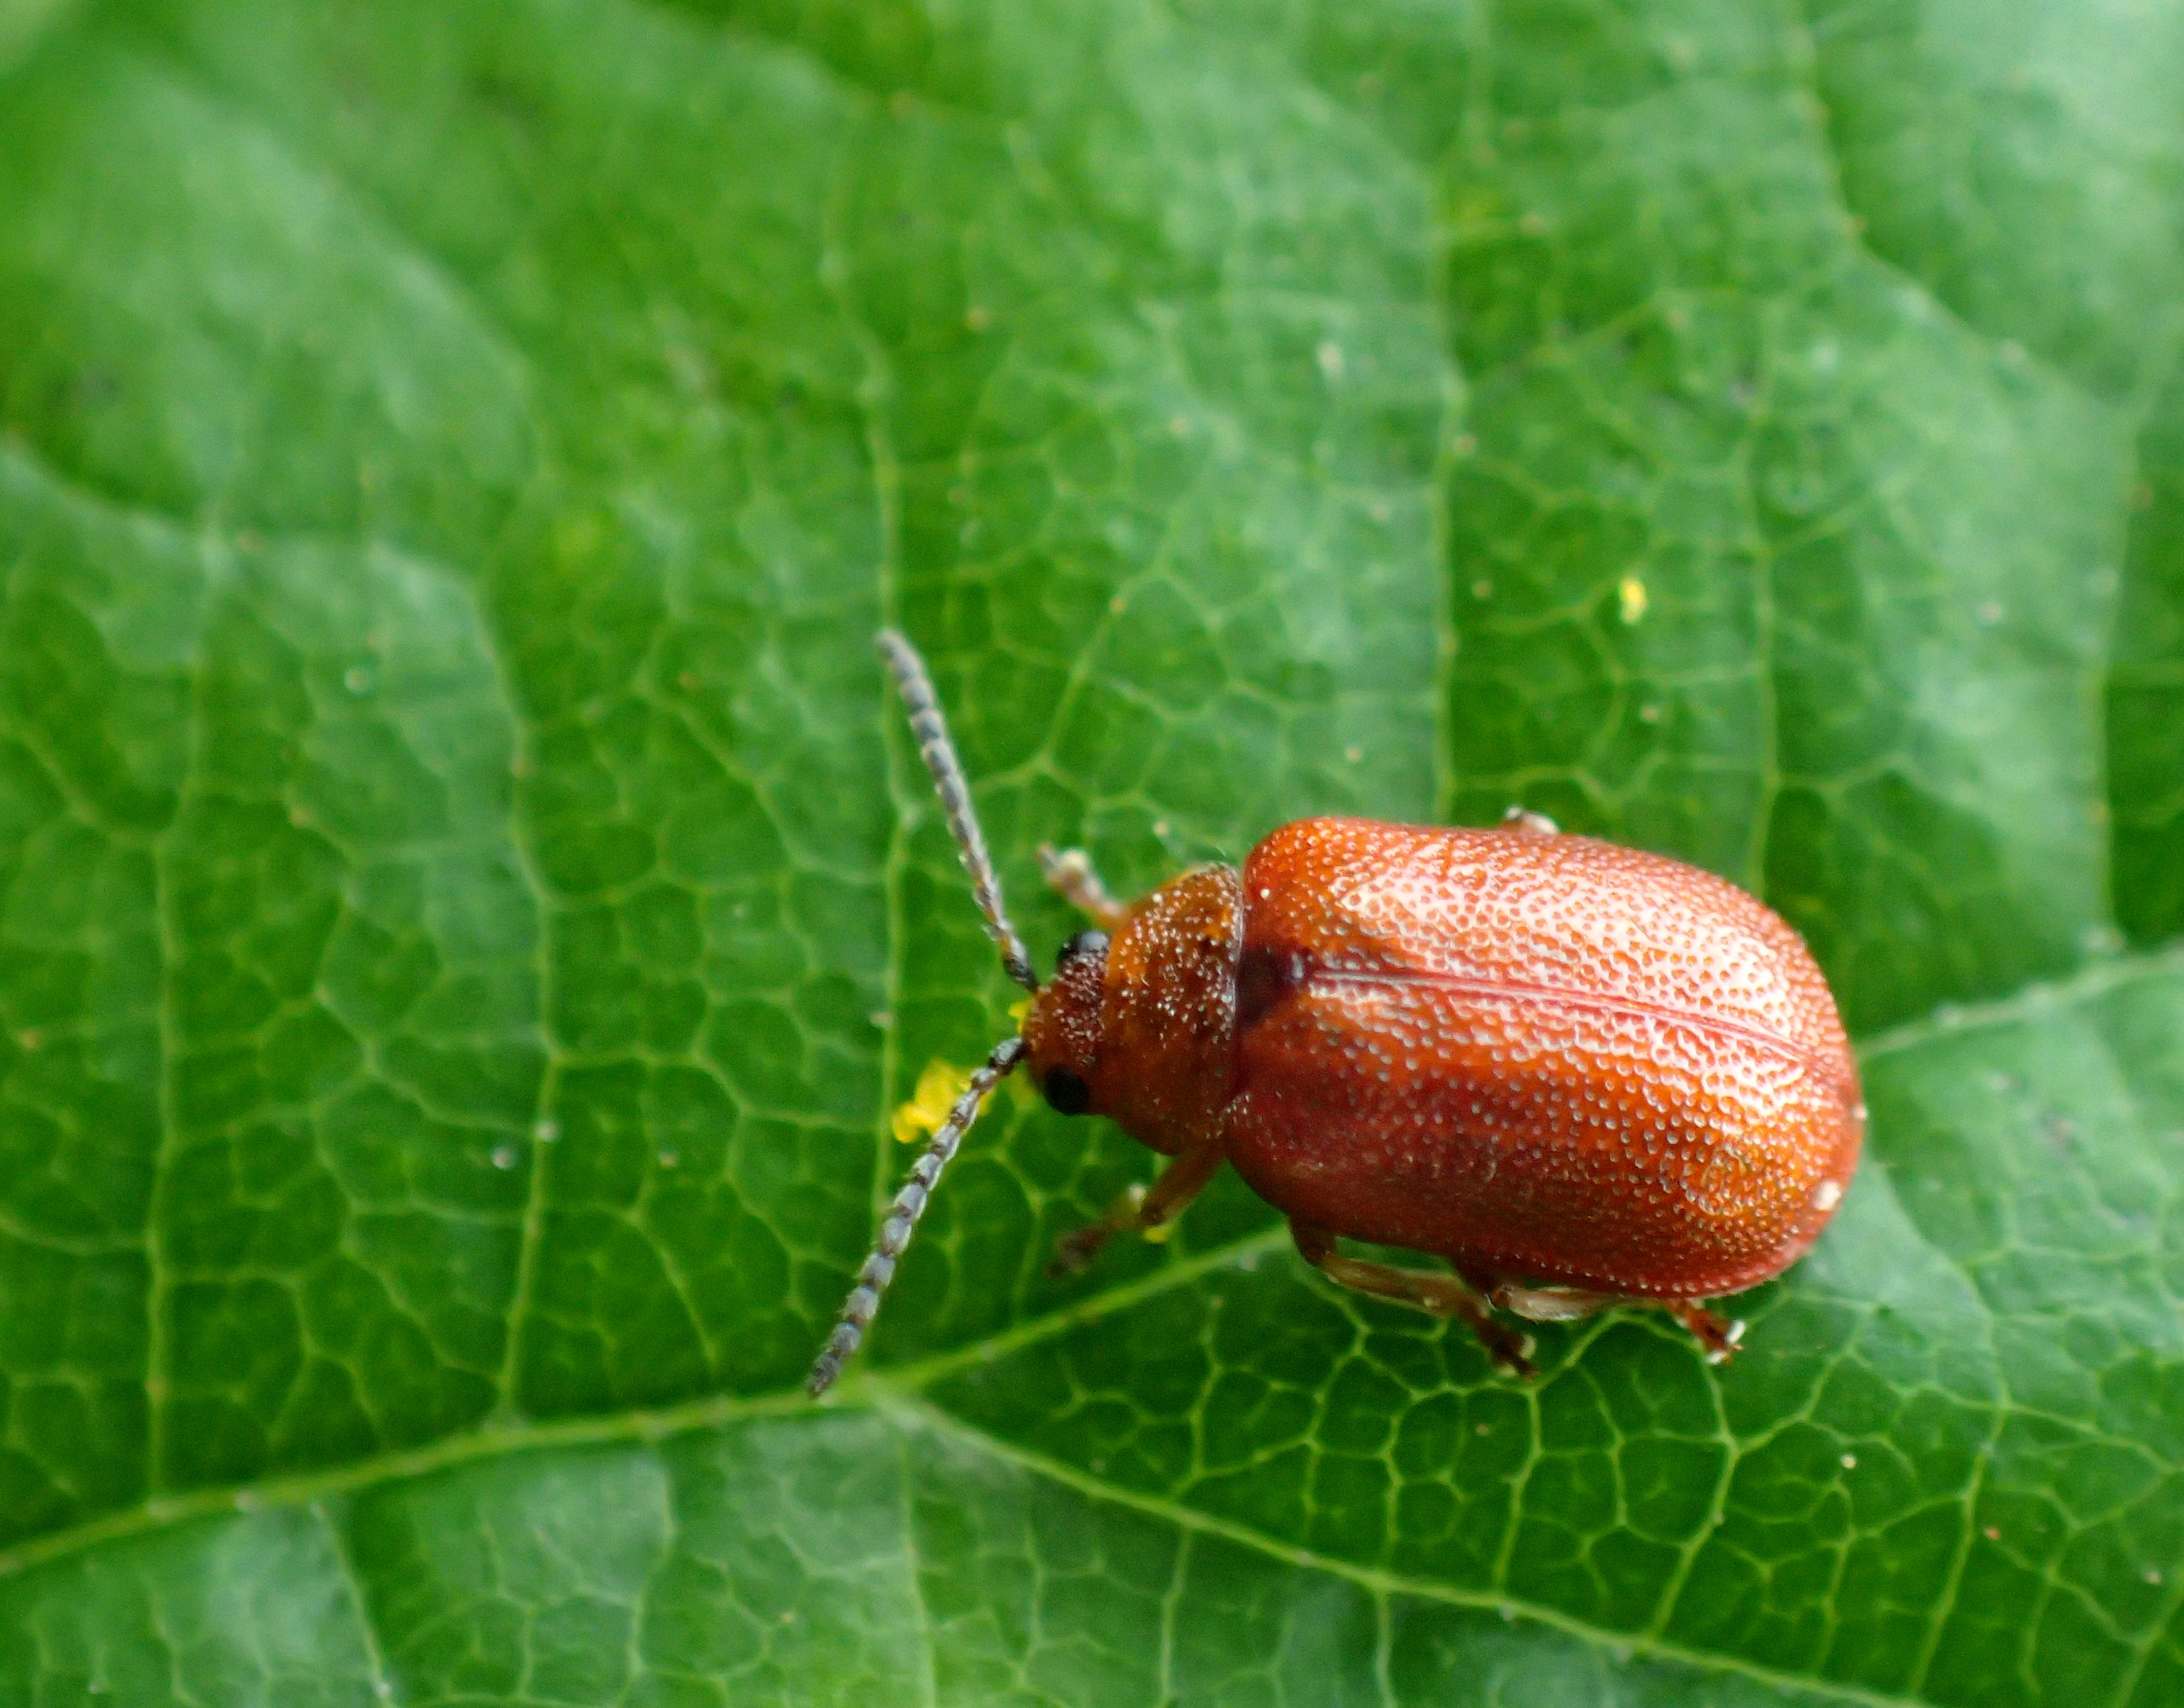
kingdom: Animalia
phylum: Arthropoda
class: Insecta
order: Coleoptera
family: Chrysomelidae
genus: Lochmaea
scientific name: Lochmaea crataegi
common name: Tjørnebladbille
